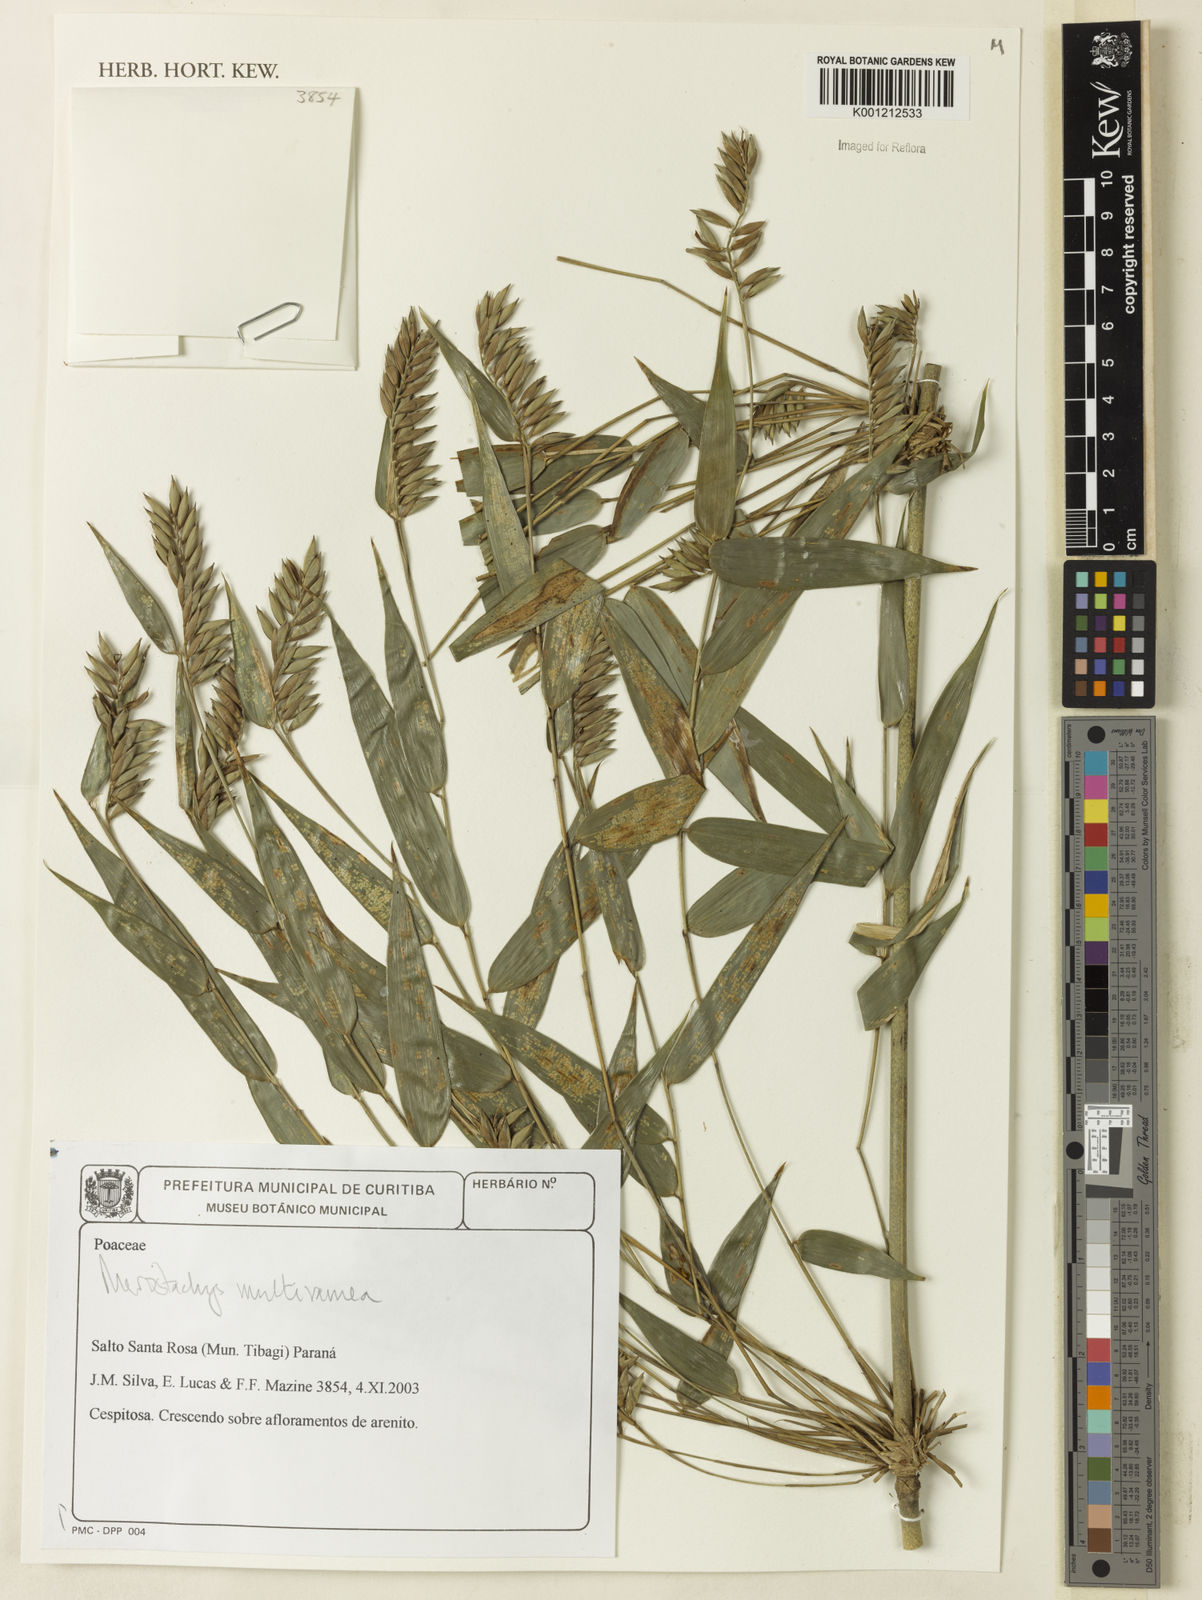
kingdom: Plantae
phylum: Tracheophyta
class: Liliopsida
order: Poales
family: Poaceae
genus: Merostachys
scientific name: Merostachys multiramea
